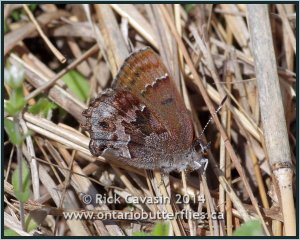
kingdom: Animalia
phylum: Arthropoda
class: Insecta
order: Lepidoptera
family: Lycaenidae
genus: Thecla
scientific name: Thecla irus
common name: Frosted Elfin
